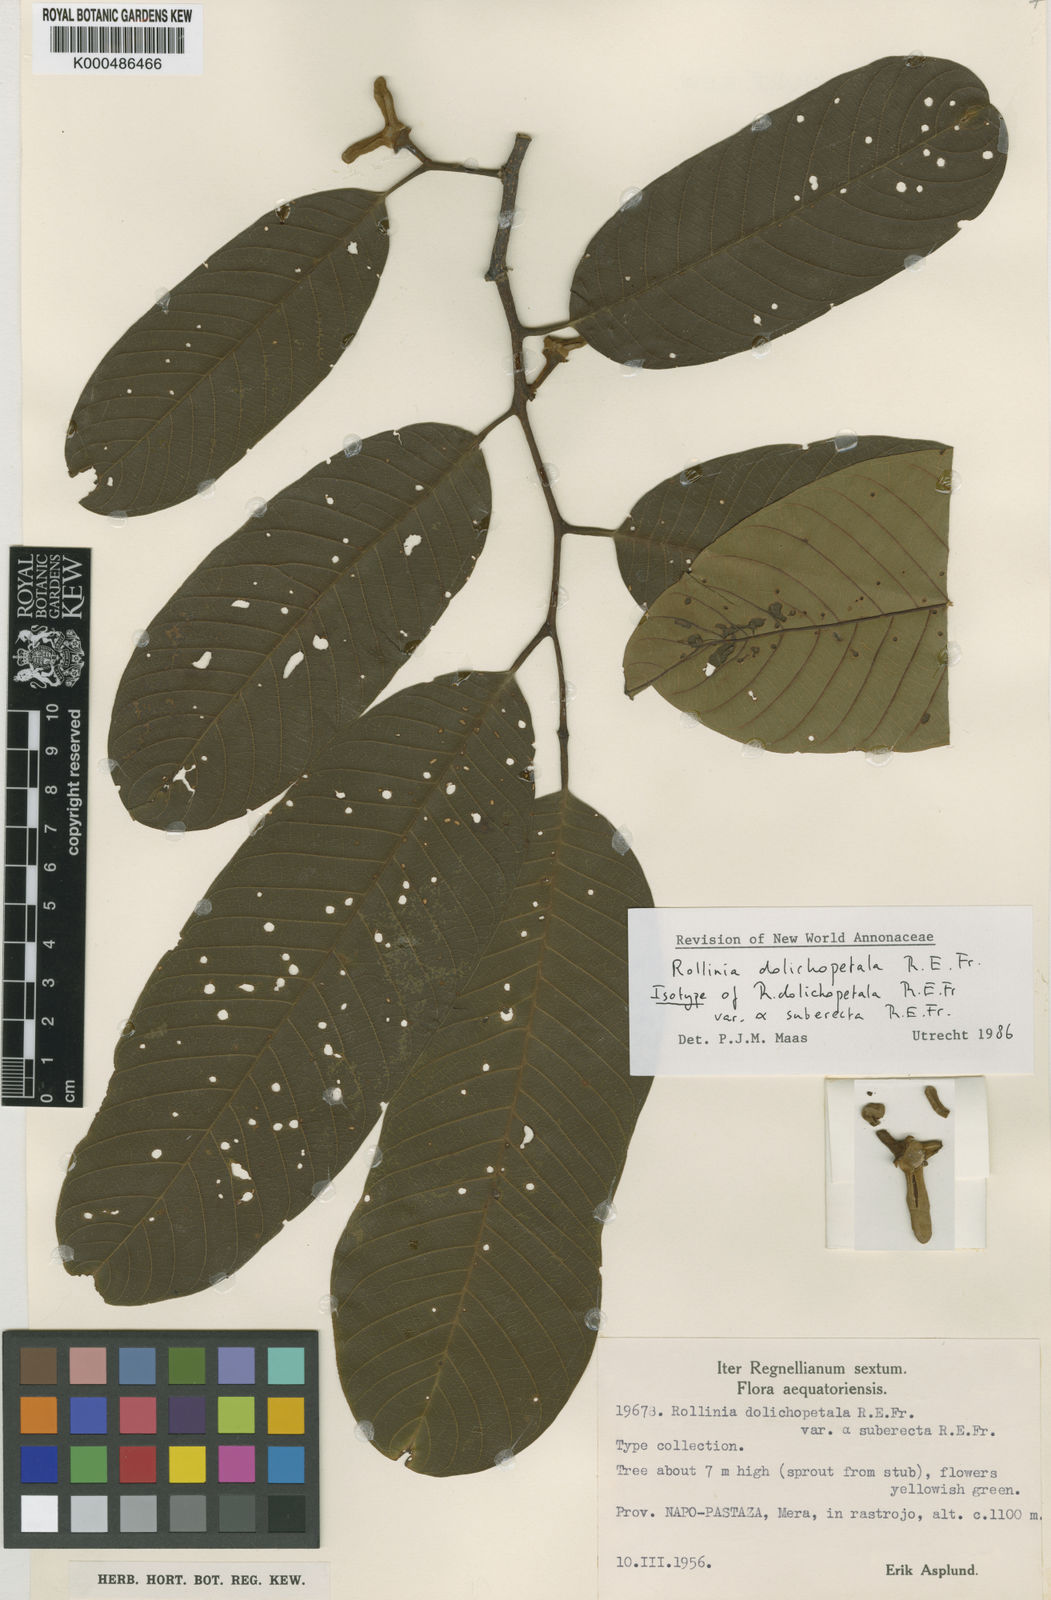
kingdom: Plantae
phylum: Tracheophyta
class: Magnoliopsida
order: Magnoliales
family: Annonaceae
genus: Annona
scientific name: Annona dolichopetala
